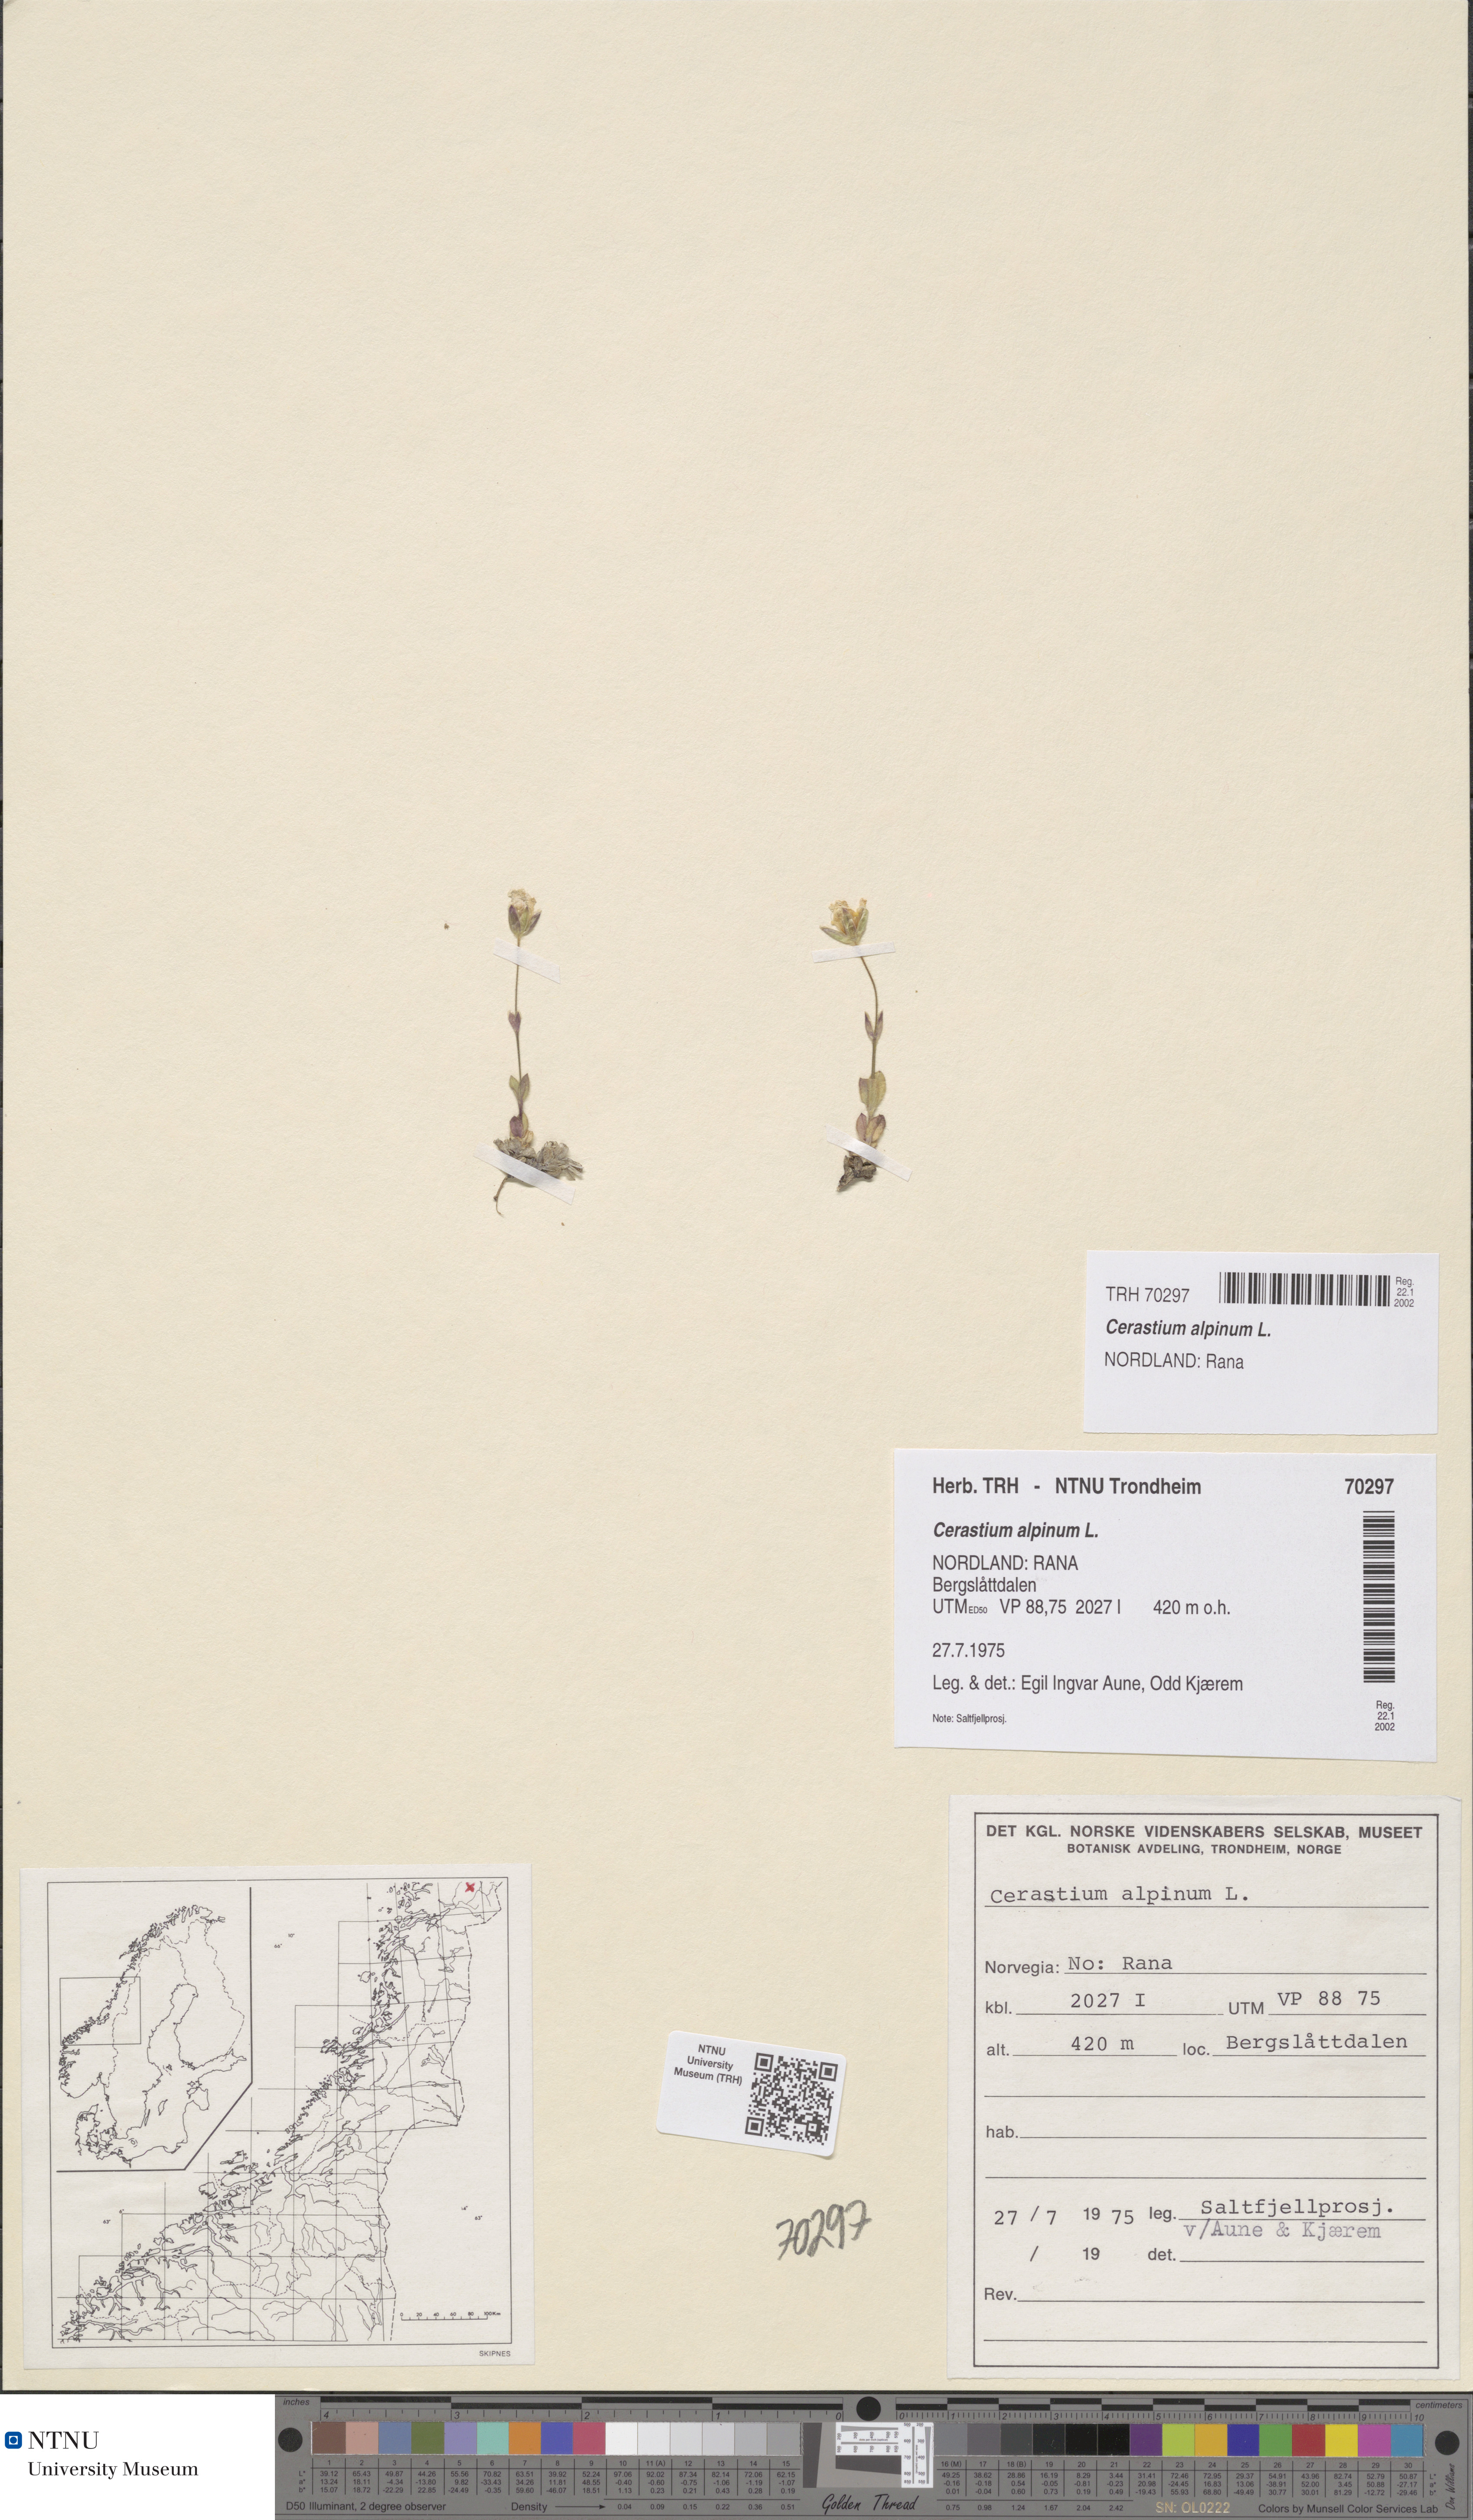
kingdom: Plantae
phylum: Tracheophyta
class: Magnoliopsida
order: Caryophyllales
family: Caryophyllaceae
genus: Cerastium
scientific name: Cerastium alpinum
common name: Alpine mouse-ear
